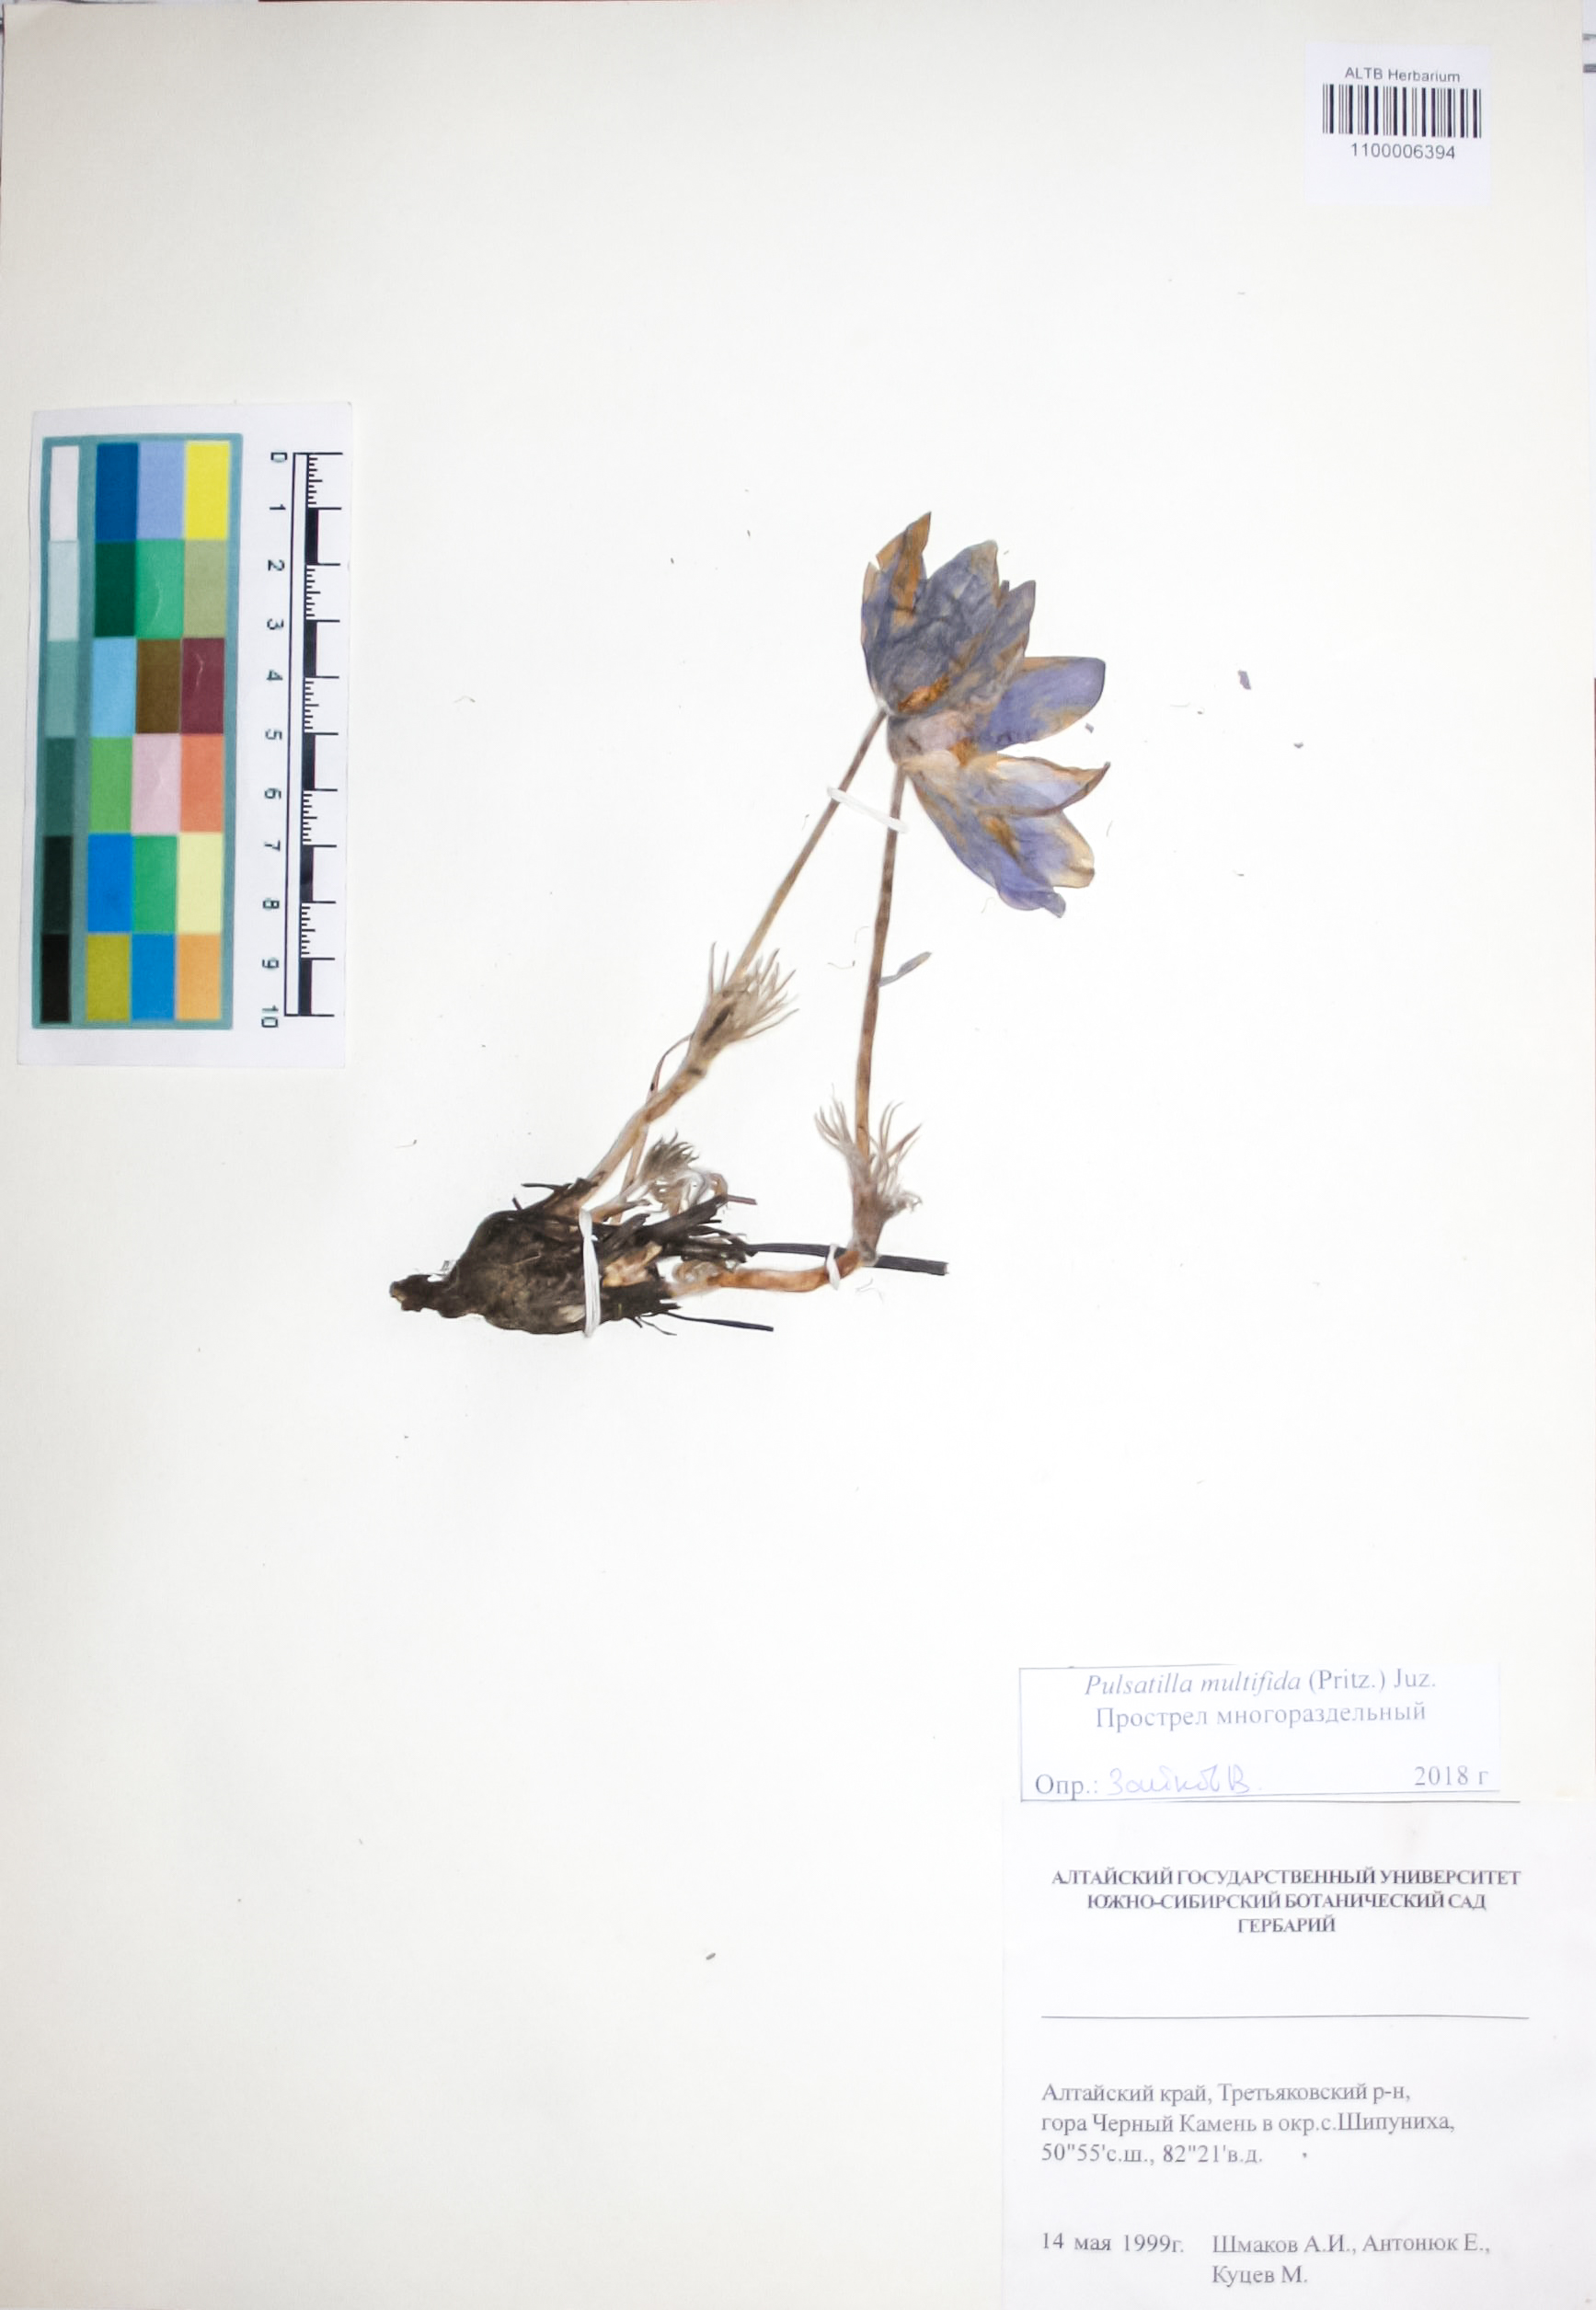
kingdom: Plantae
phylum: Tracheophyta
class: Magnoliopsida
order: Ranunculales
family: Ranunculaceae
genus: Pulsatilla
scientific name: Pulsatilla patens
